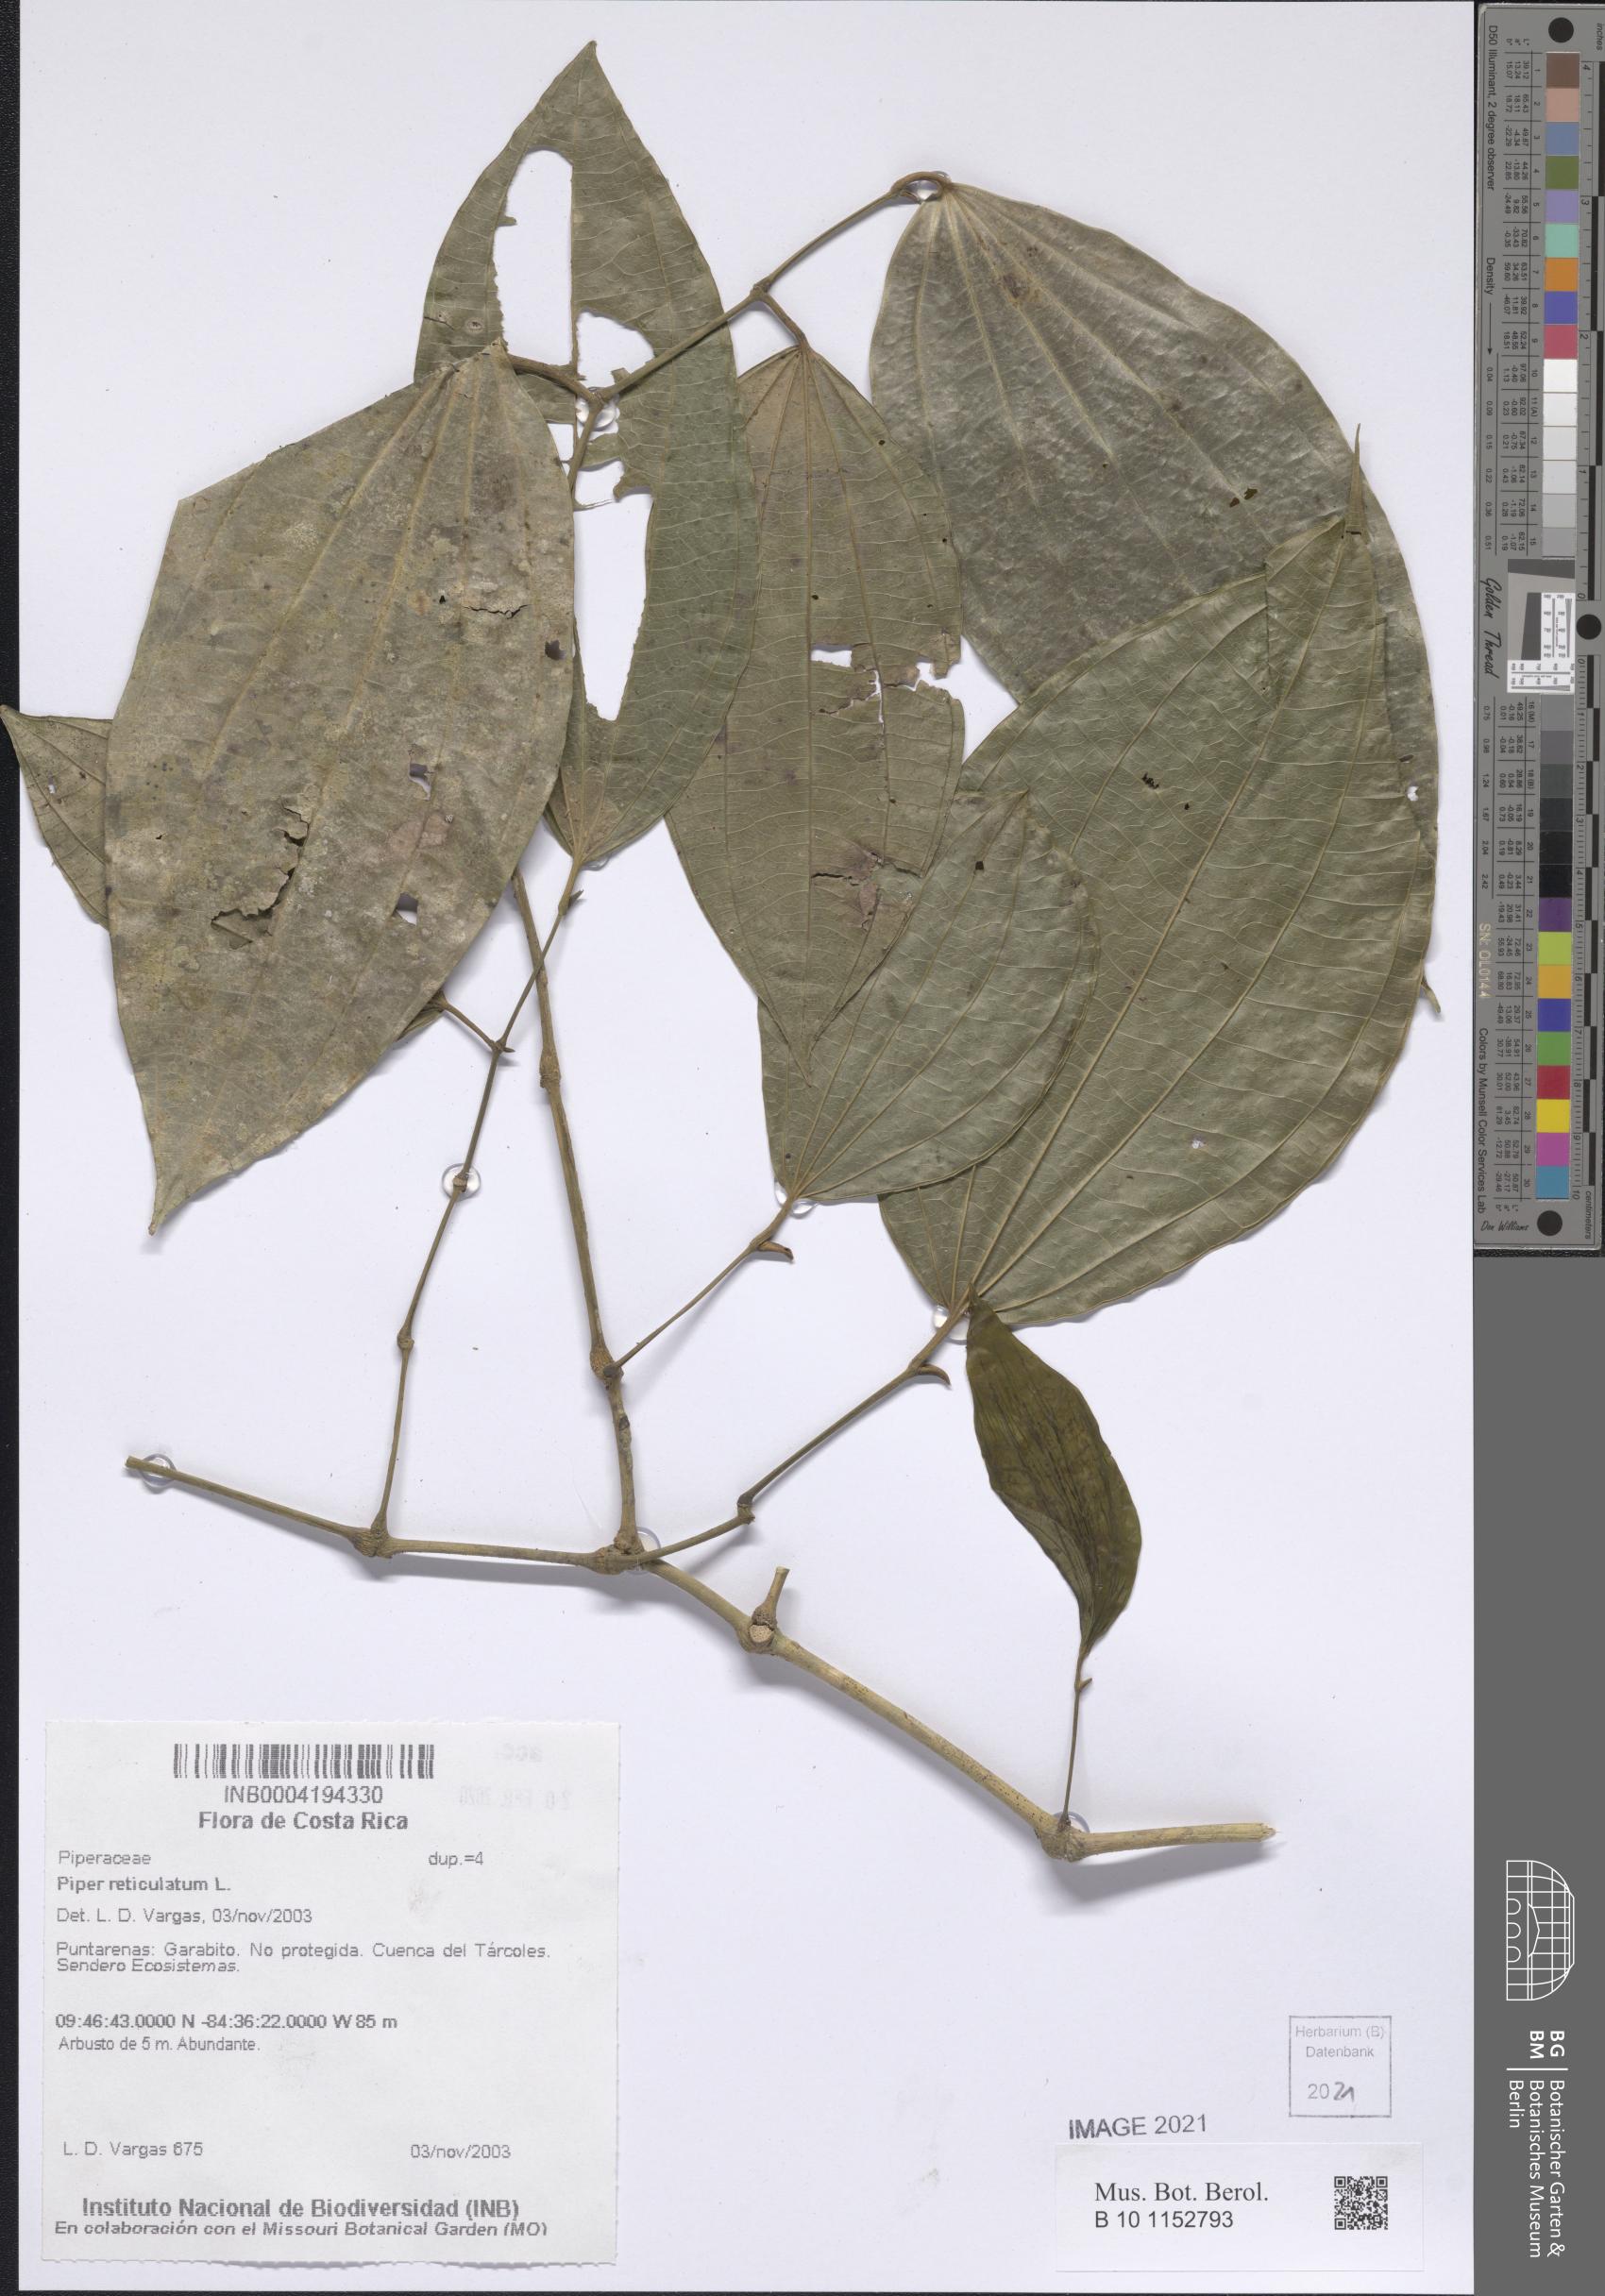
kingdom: Plantae
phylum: Tracheophyta
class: Magnoliopsida
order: Piperales
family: Piperaceae
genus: Piper
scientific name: Piper reticulatum
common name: Wild cane
